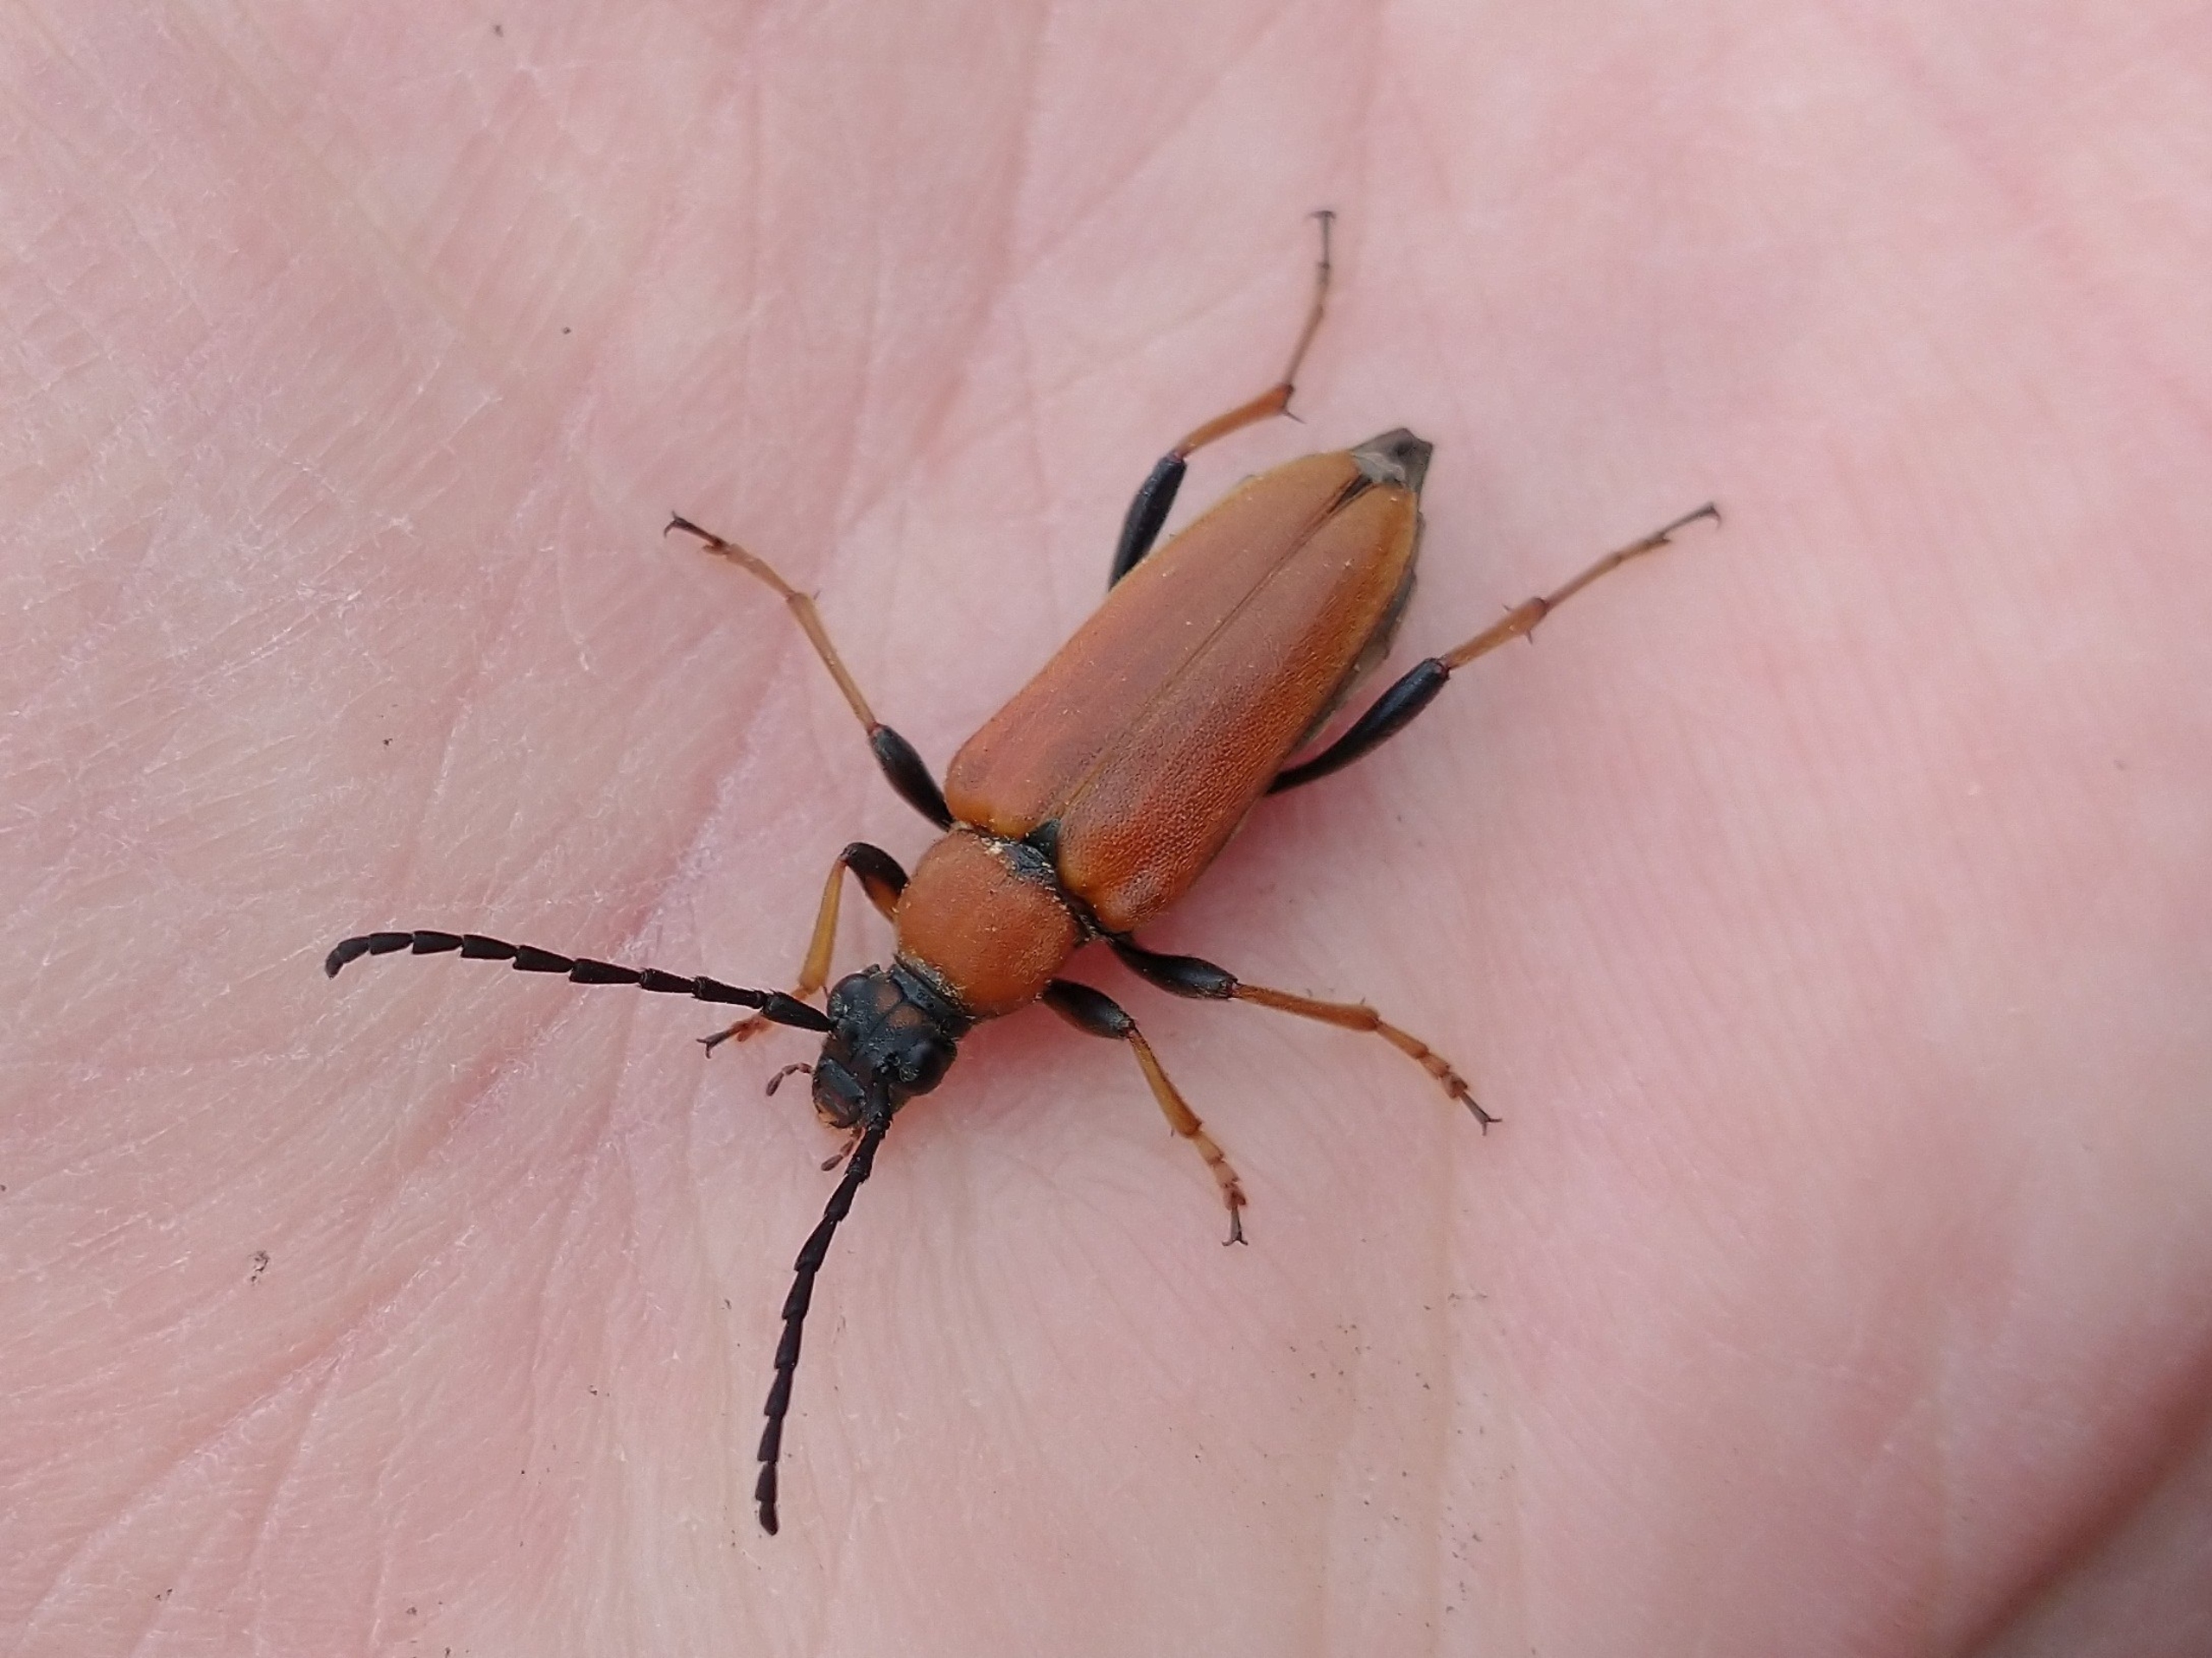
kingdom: Animalia
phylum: Arthropoda
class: Insecta
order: Coleoptera
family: Cerambycidae
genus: Stictoleptura
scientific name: Stictoleptura rubra
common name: Rød blomsterbuk
